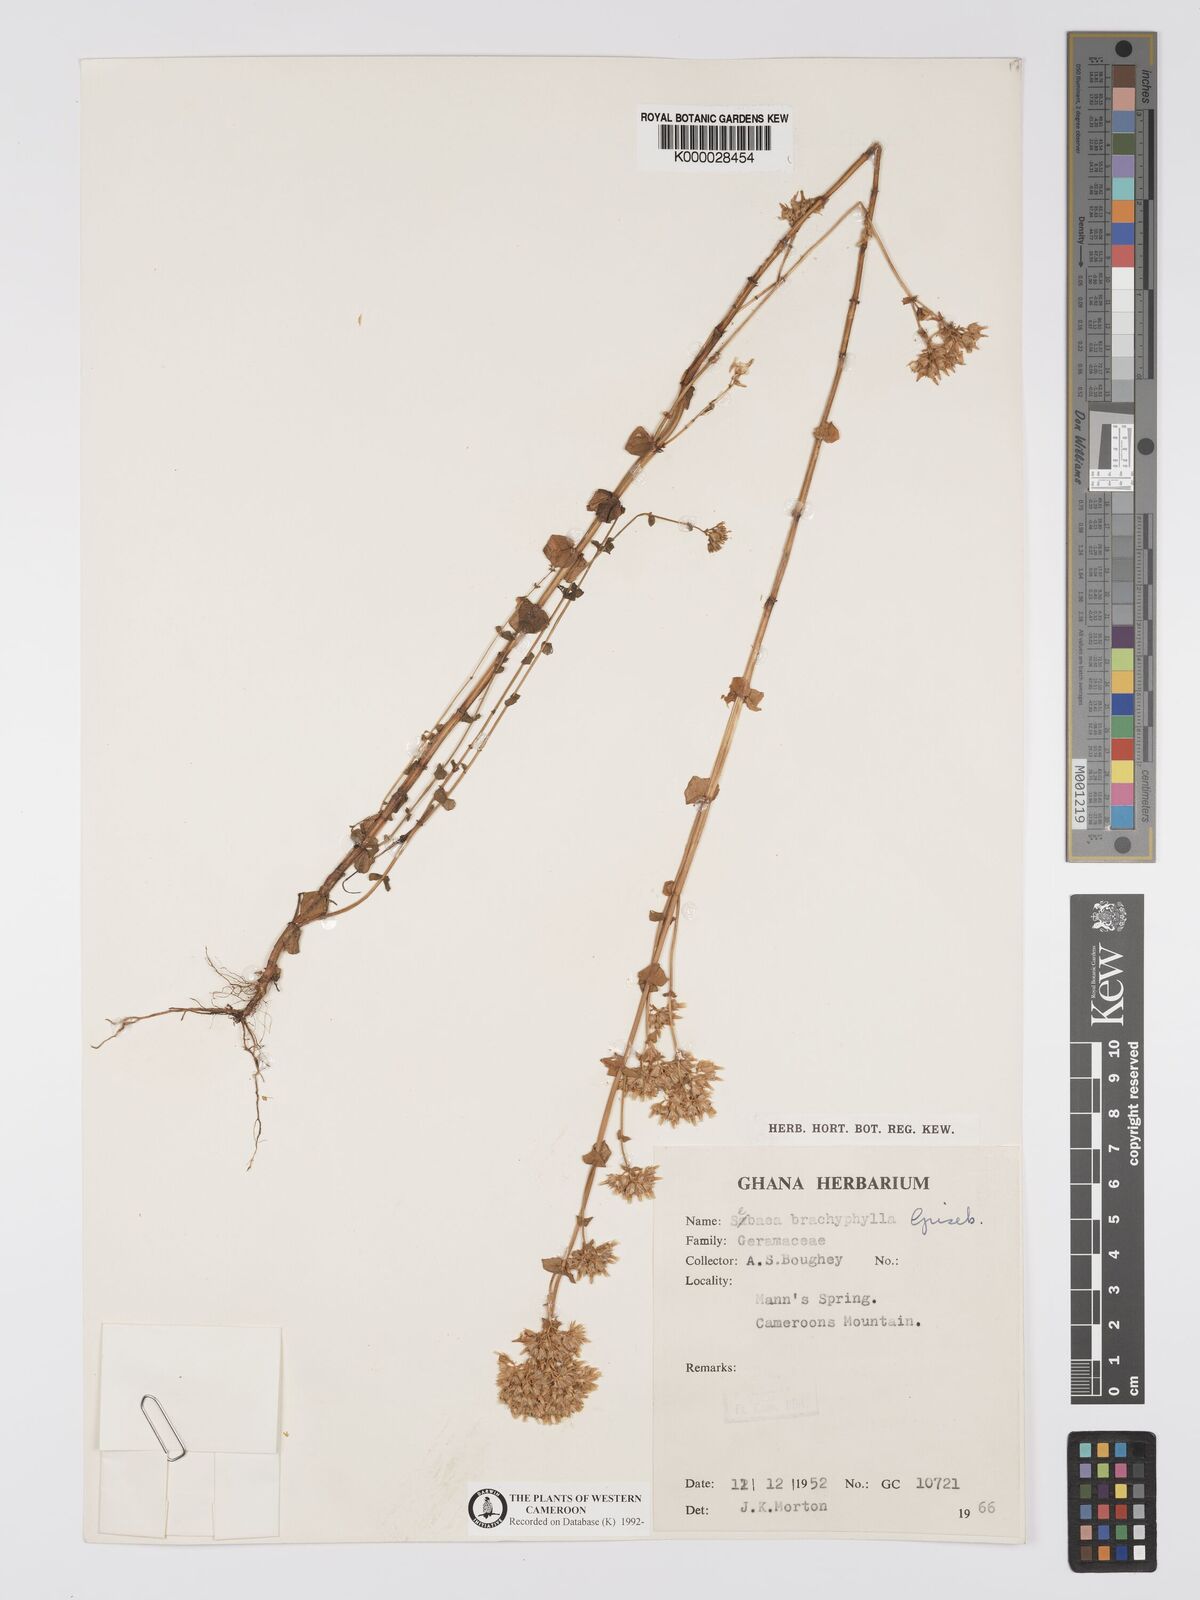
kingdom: Plantae
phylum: Tracheophyta
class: Magnoliopsida
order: Gentianales
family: Gentianaceae
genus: Sebaea
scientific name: Sebaea brachyphylla
